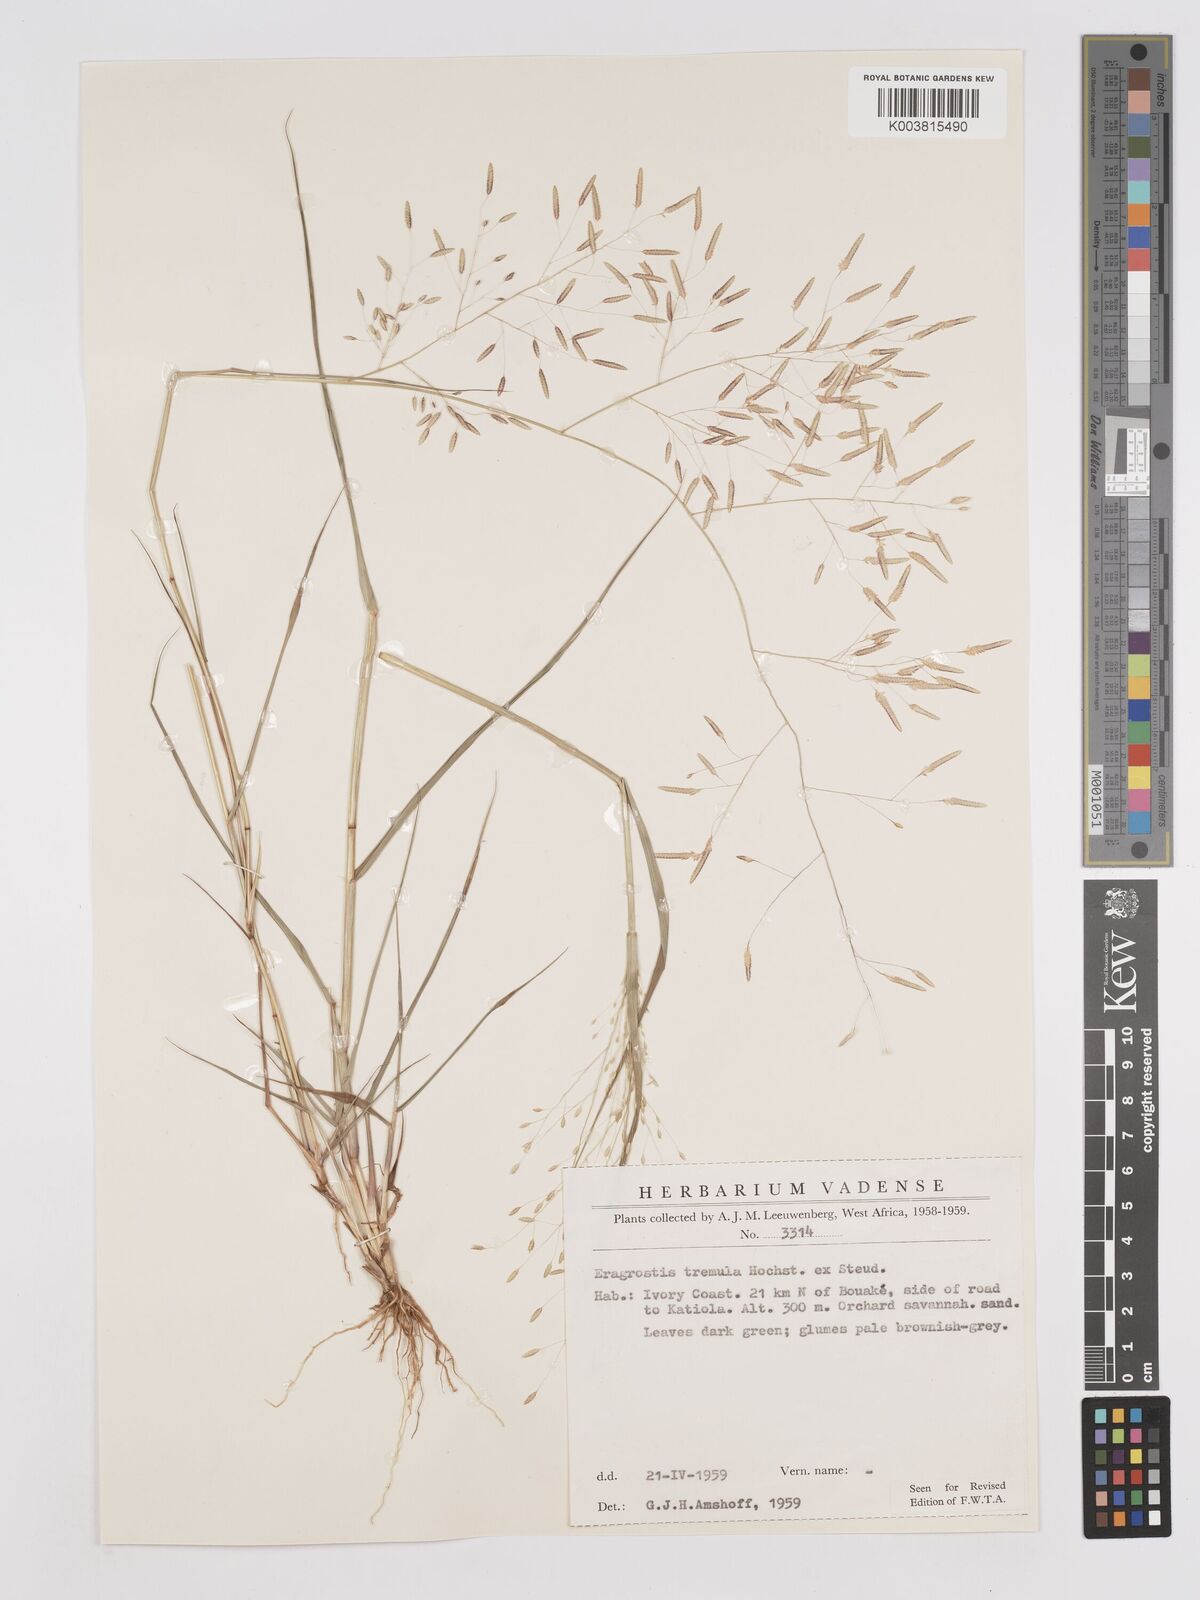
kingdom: Plantae
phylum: Tracheophyta
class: Liliopsida
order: Poales
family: Poaceae
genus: Eragrostis
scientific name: Eragrostis tremula
